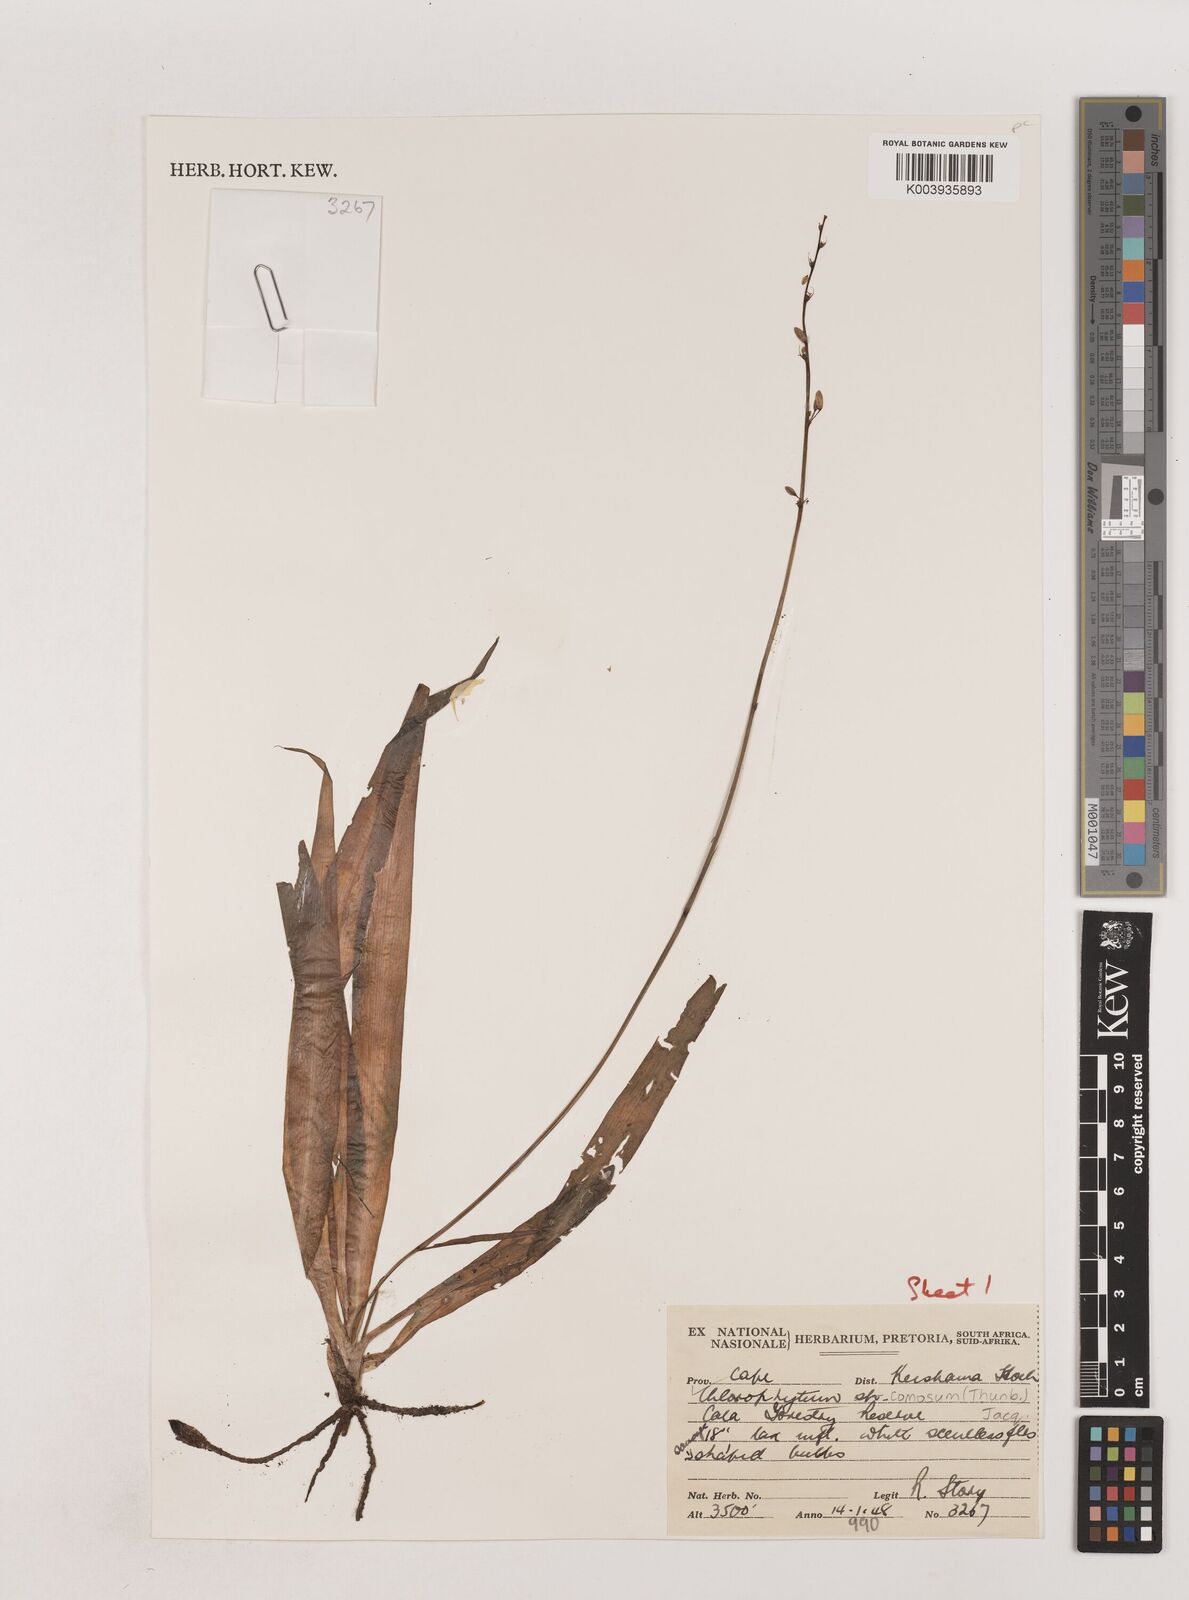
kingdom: Plantae
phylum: Tracheophyta
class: Liliopsida
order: Asparagales
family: Asparagaceae
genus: Chlorophytum
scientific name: Chlorophytum comosum
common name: Spider plant
